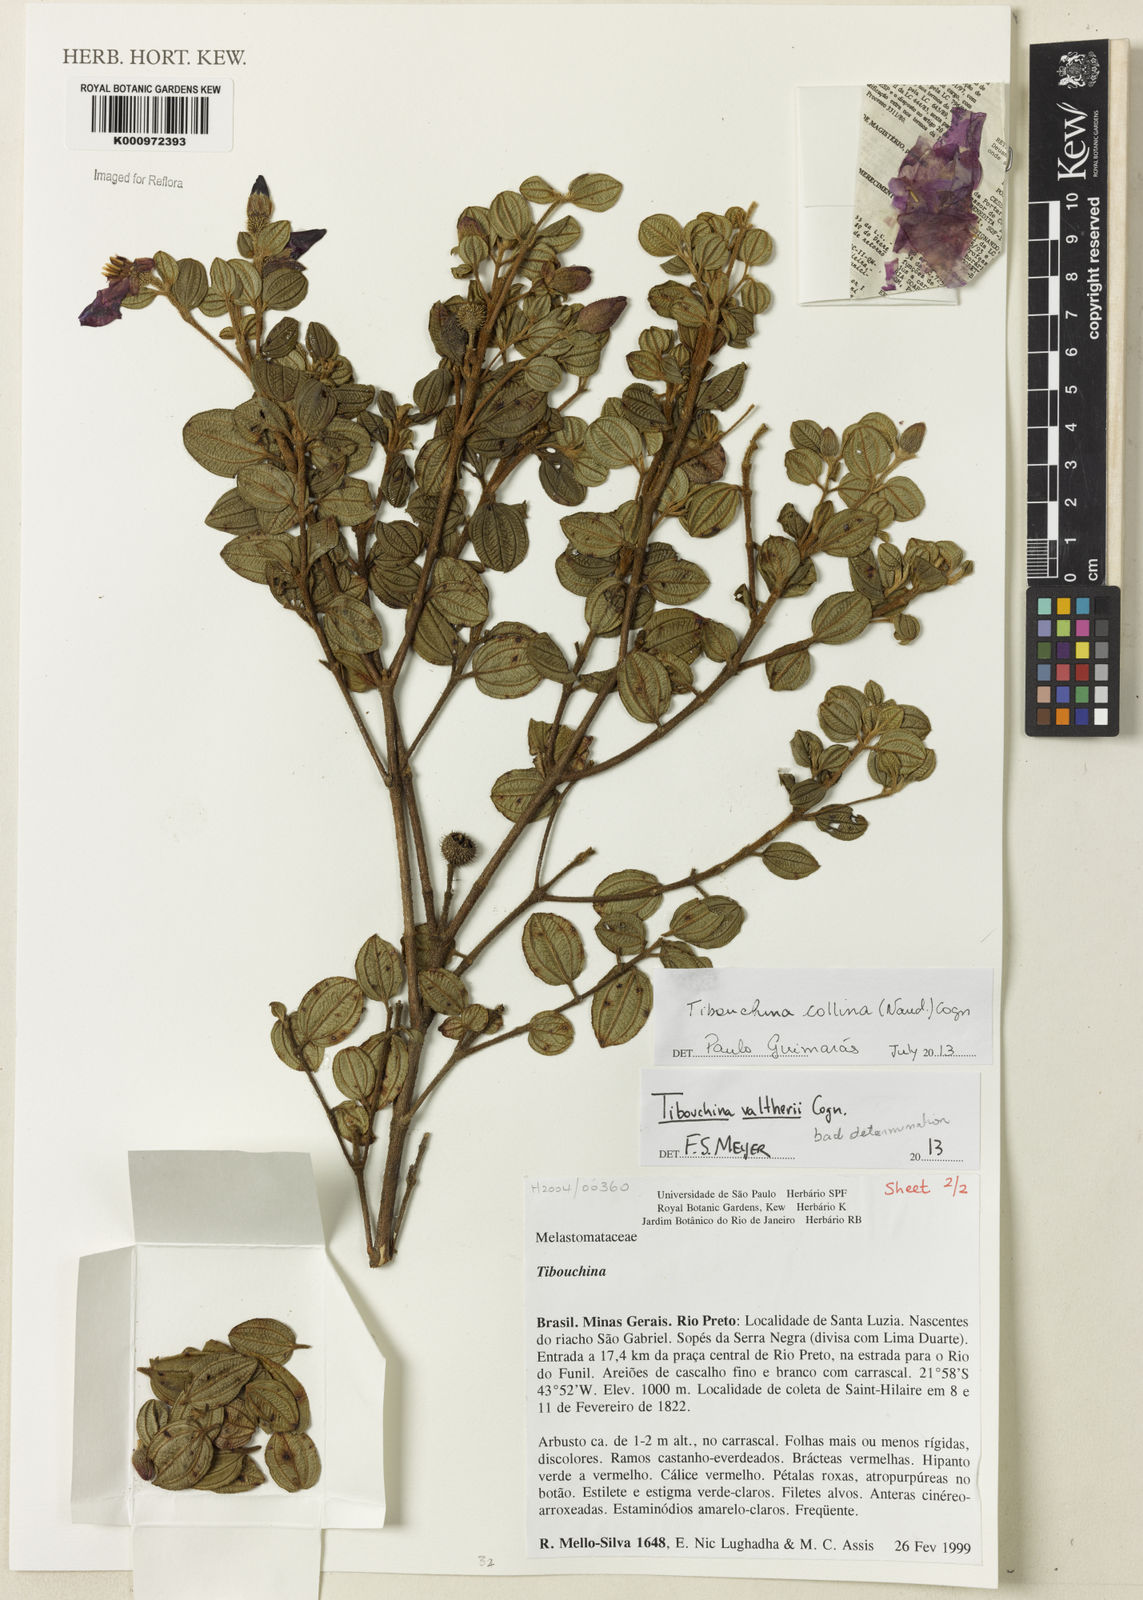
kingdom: Plantae
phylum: Tracheophyta
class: Magnoliopsida
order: Myrtales
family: Melastomataceae
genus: Pleroma
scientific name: Pleroma collinum
